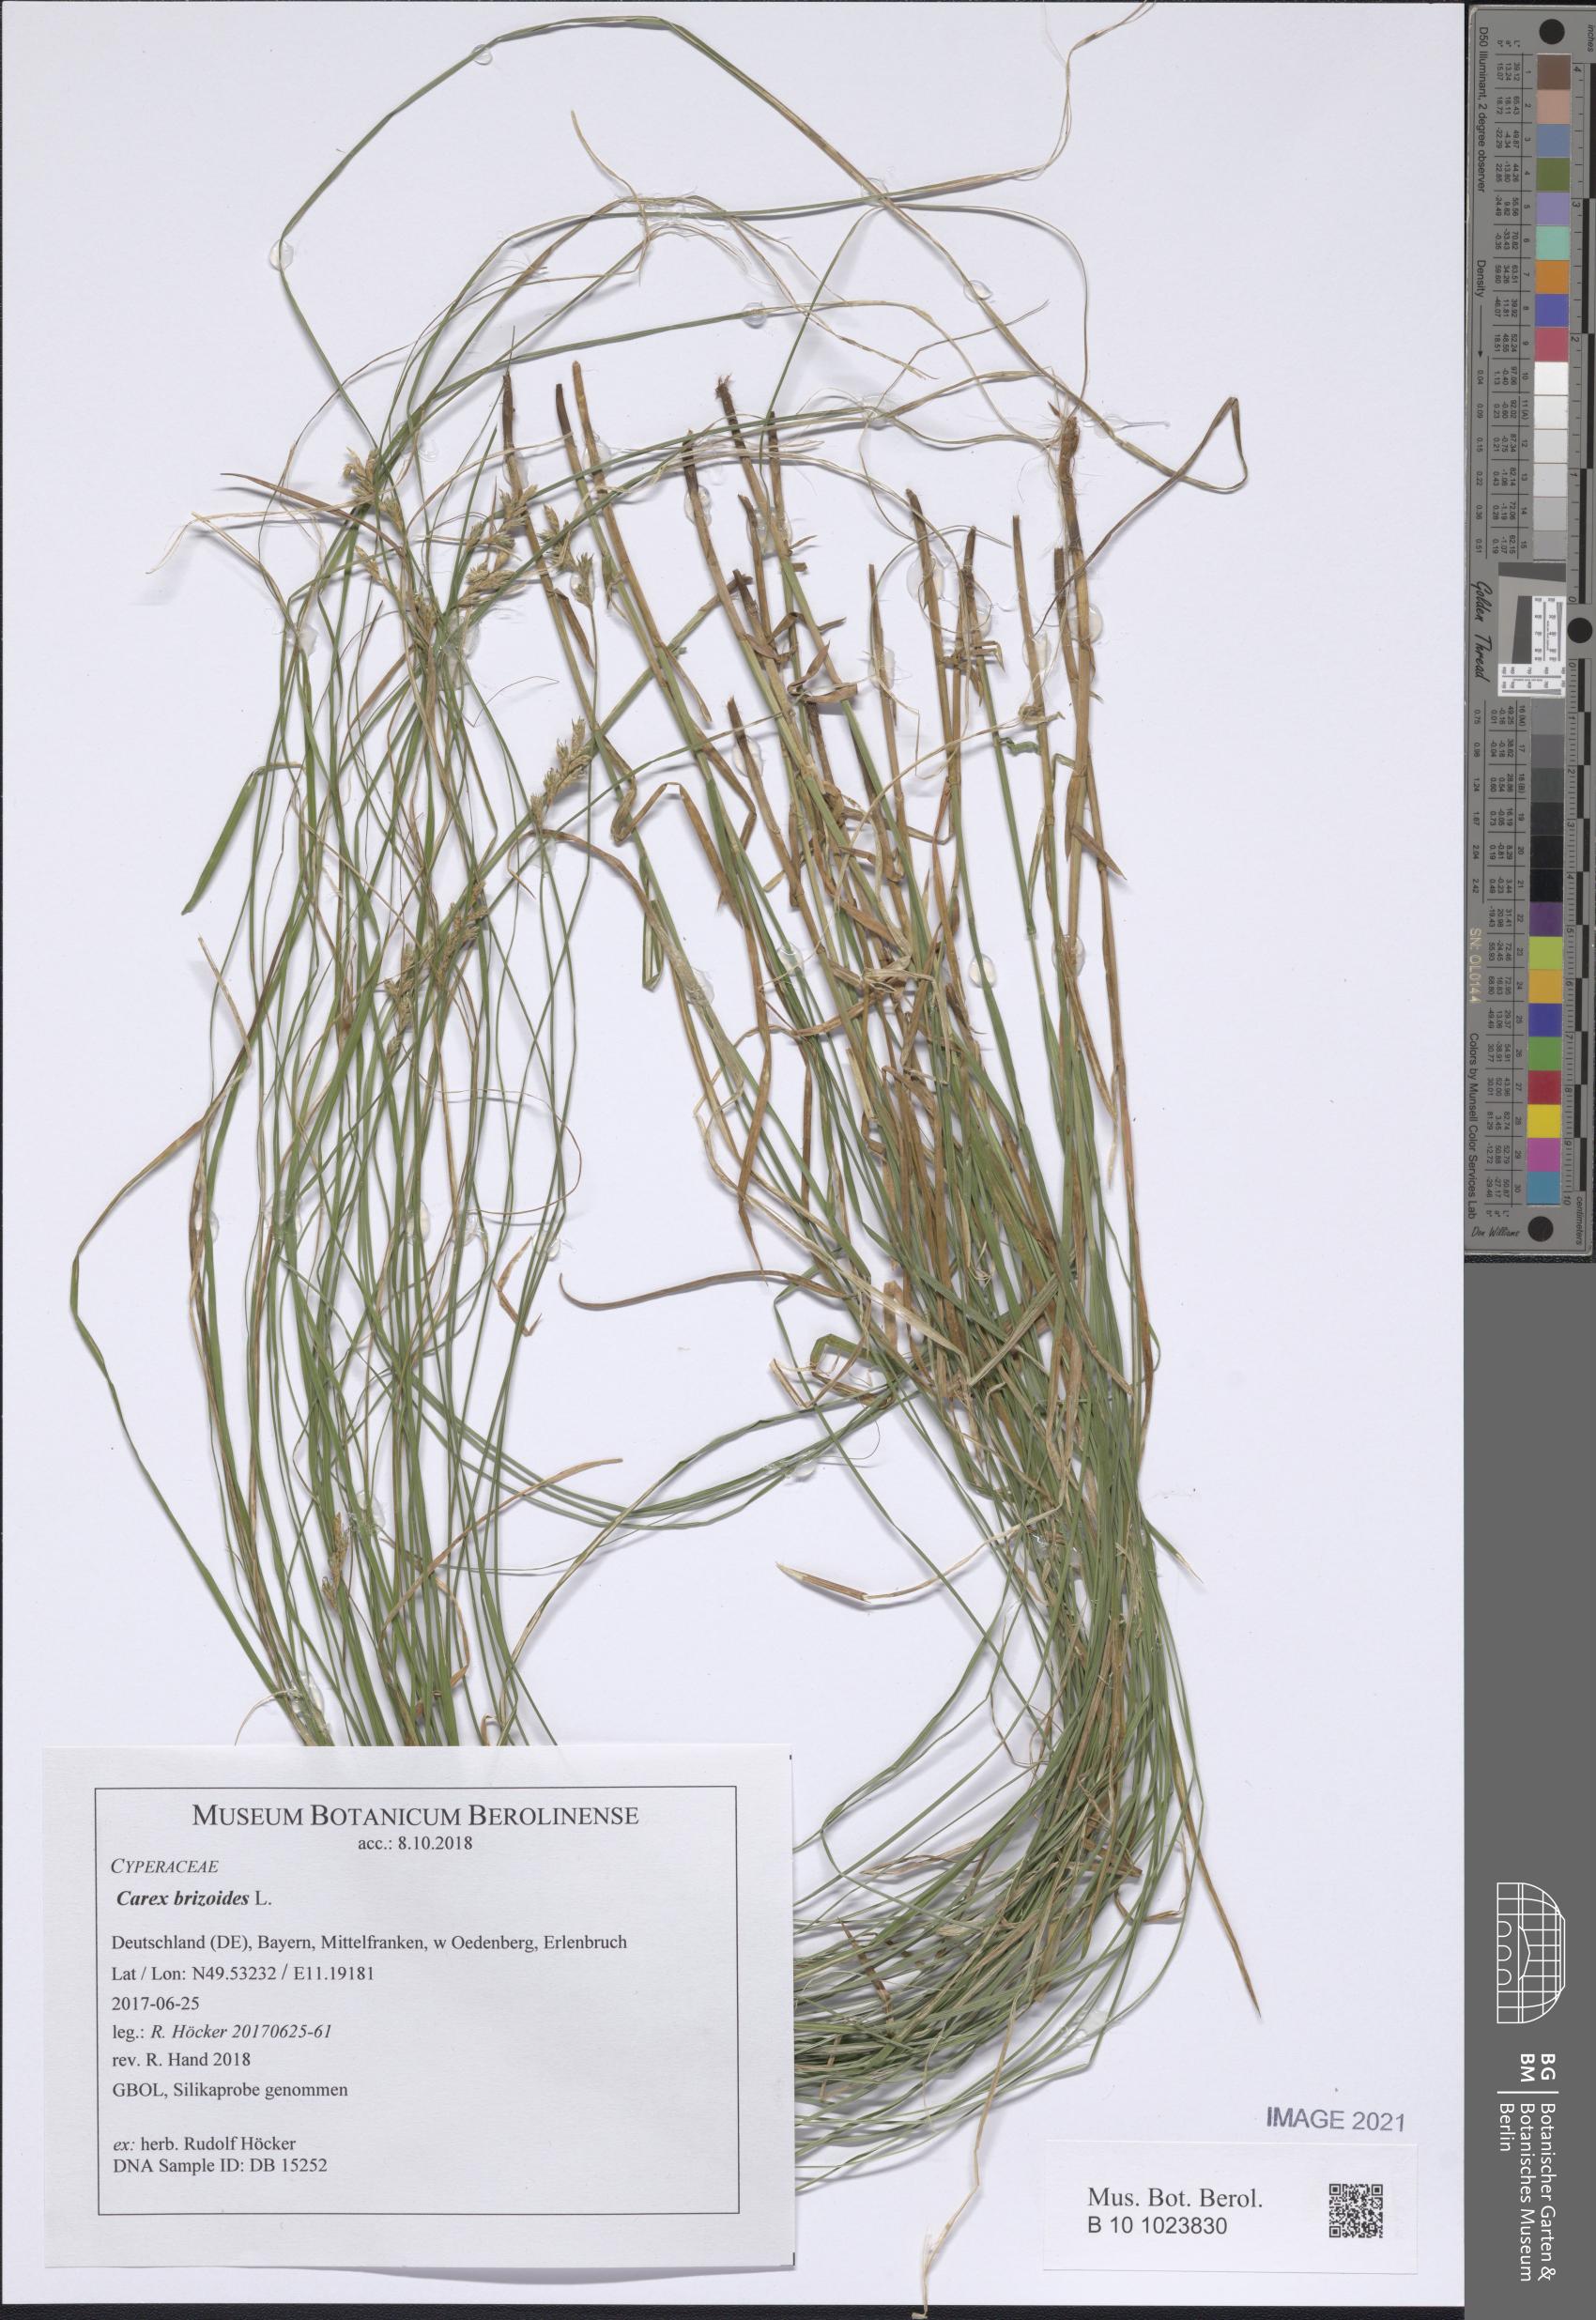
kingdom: Plantae
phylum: Tracheophyta
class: Liliopsida
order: Poales
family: Cyperaceae
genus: Carex
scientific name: Carex brizoides
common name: Quaking-grass sedge
